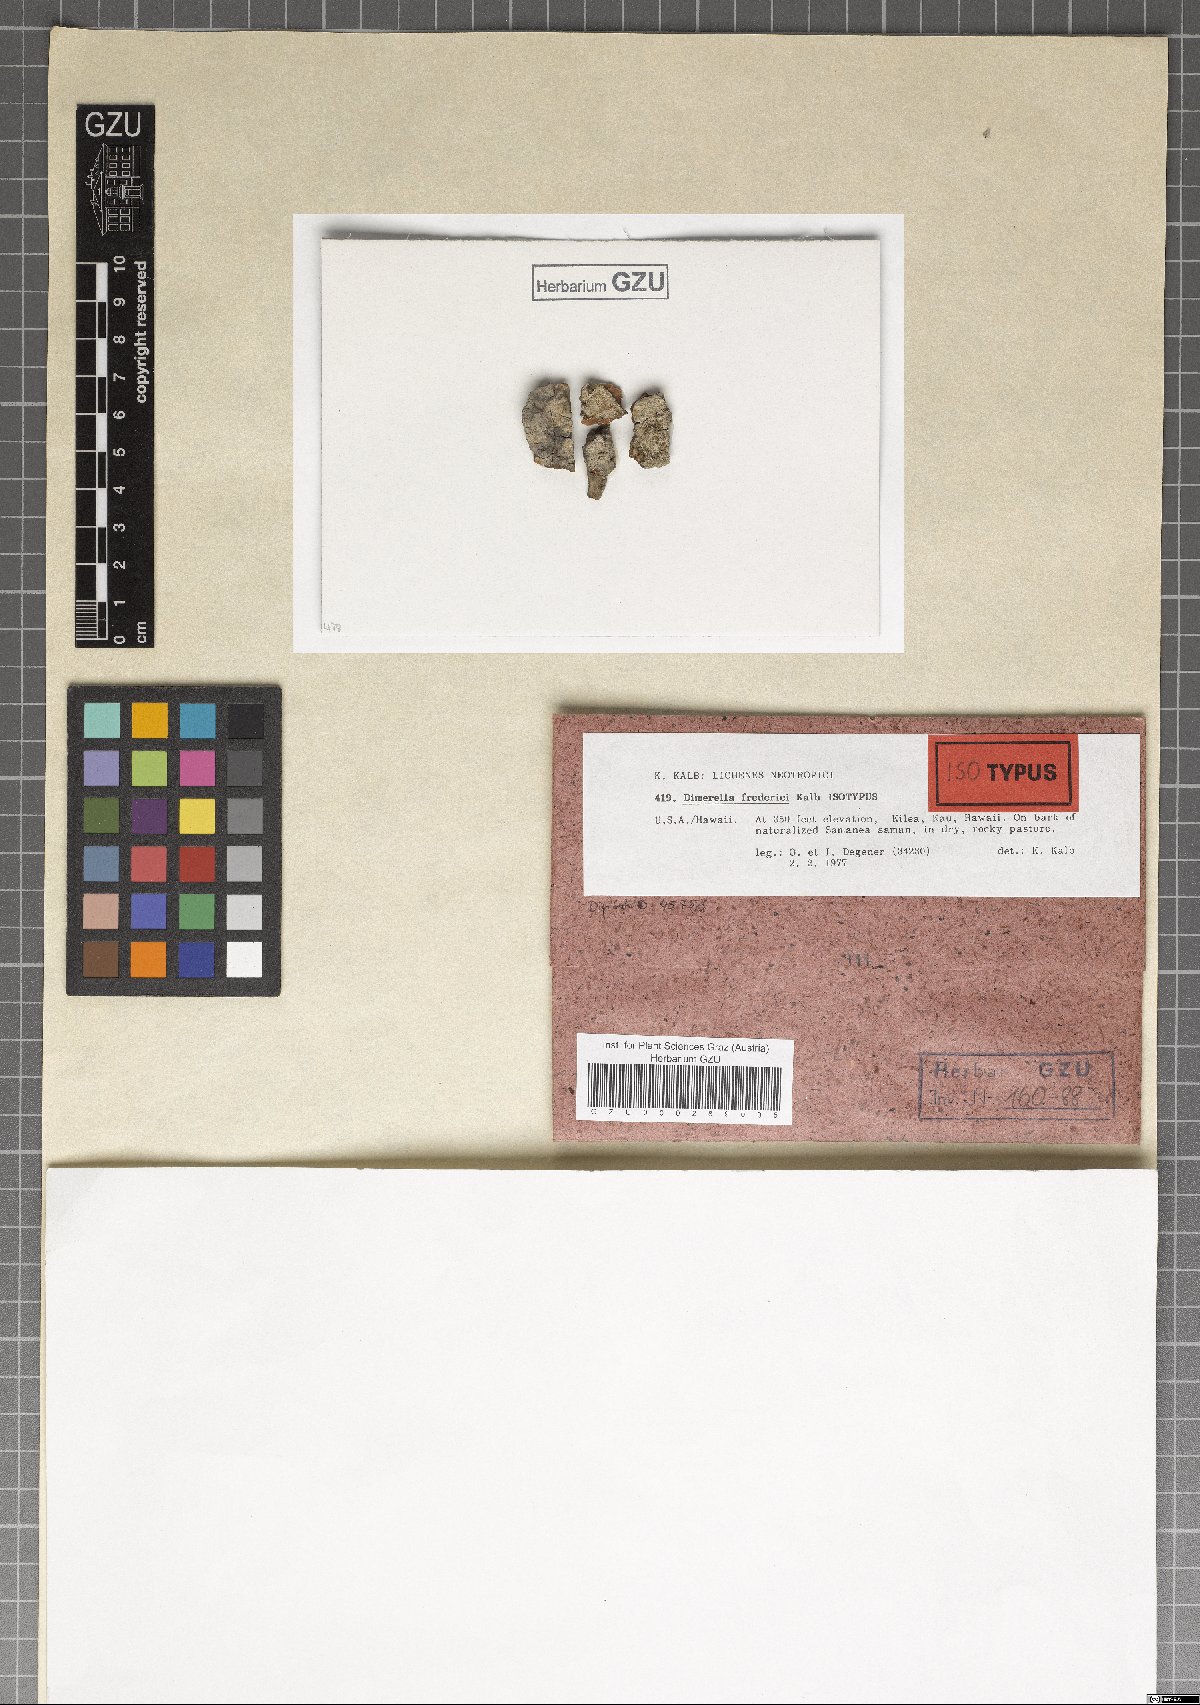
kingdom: Fungi
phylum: Ascomycota
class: Lecanoromycetes
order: Gyalectales
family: Gyalectaceae
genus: Dimerella
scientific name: Dimerella fredrici
